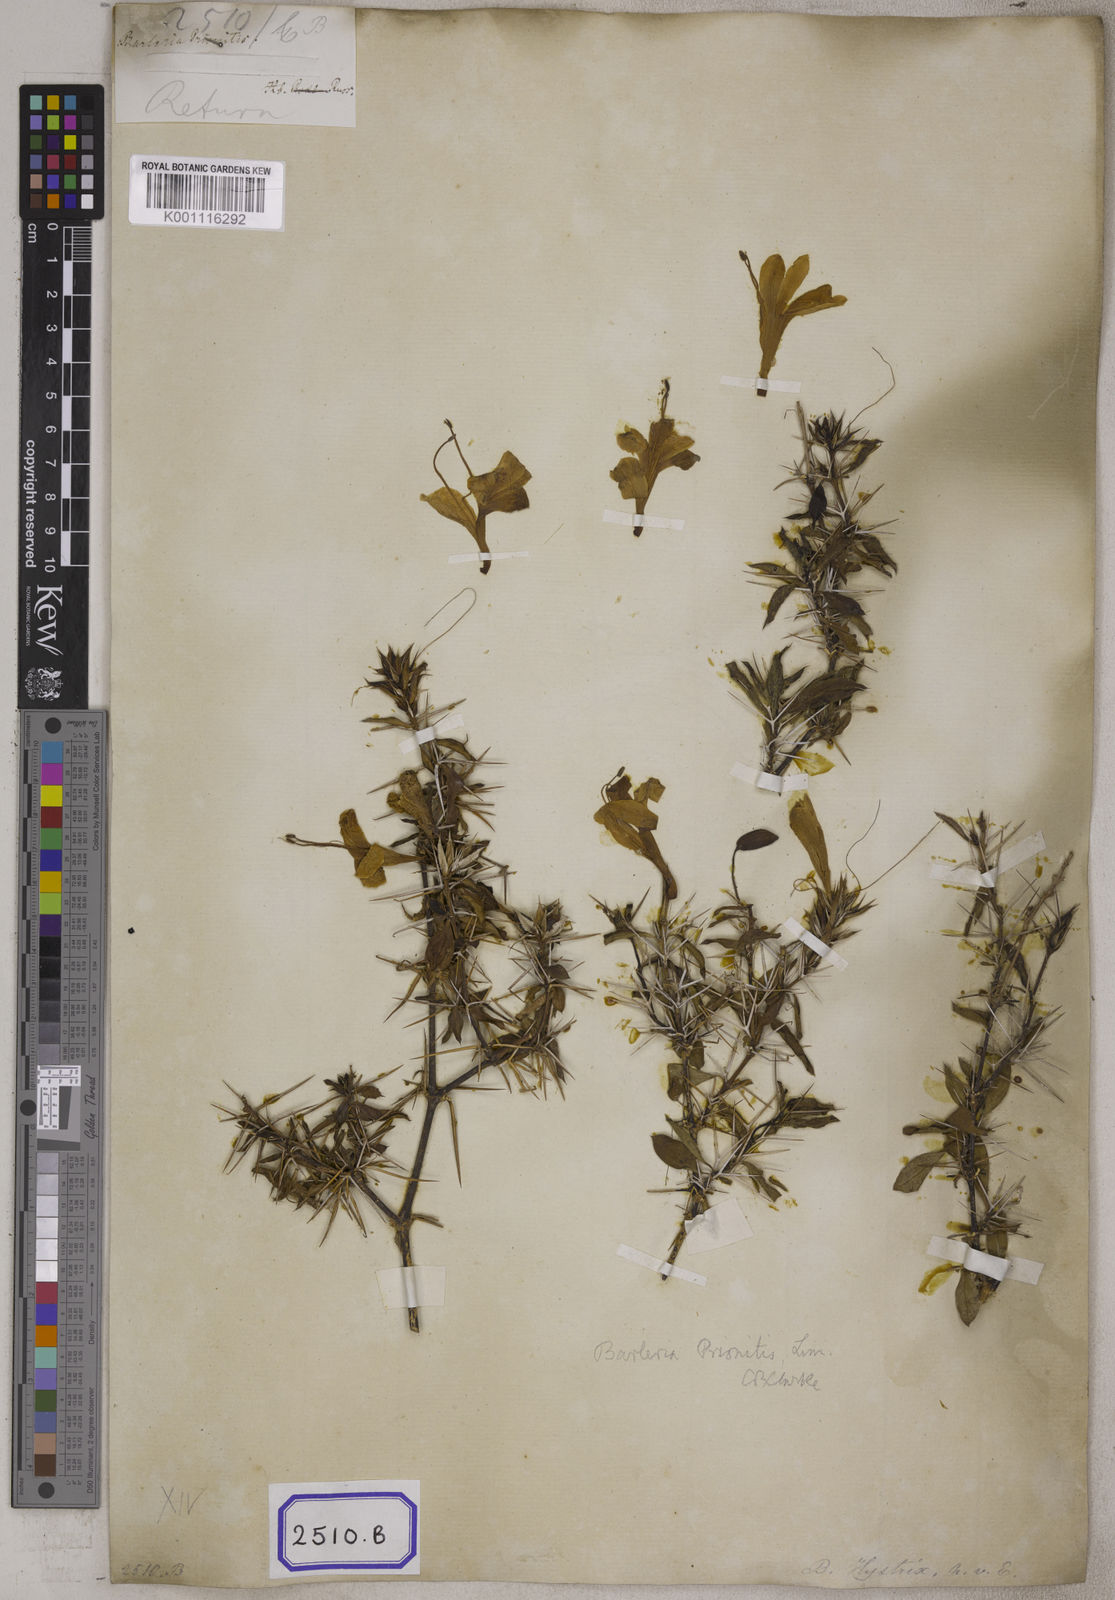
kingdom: Plantae
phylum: Tracheophyta
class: Magnoliopsida
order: Lamiales
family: Acanthaceae
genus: Barleria
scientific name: Barleria prionitis
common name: Barleria
